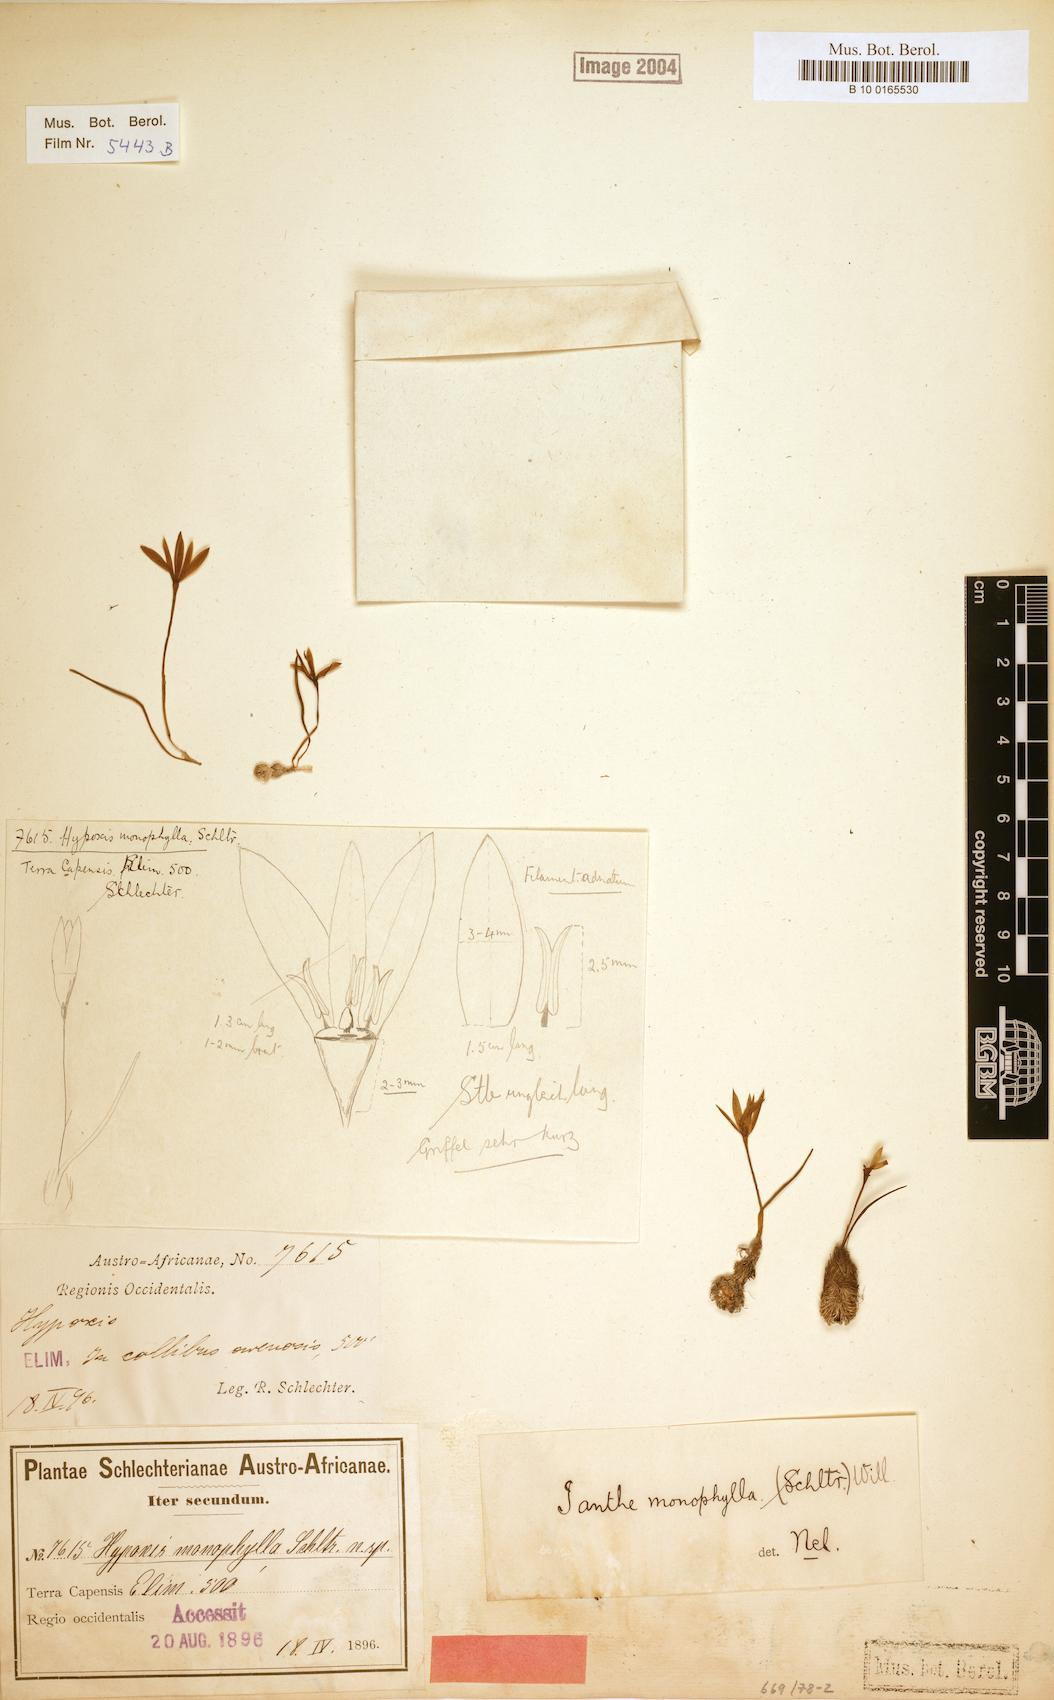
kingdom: Plantae
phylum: Tracheophyta
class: Liliopsida
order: Asparagales
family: Hypoxidaceae
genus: Pauridia
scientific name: Pauridia monophylla
